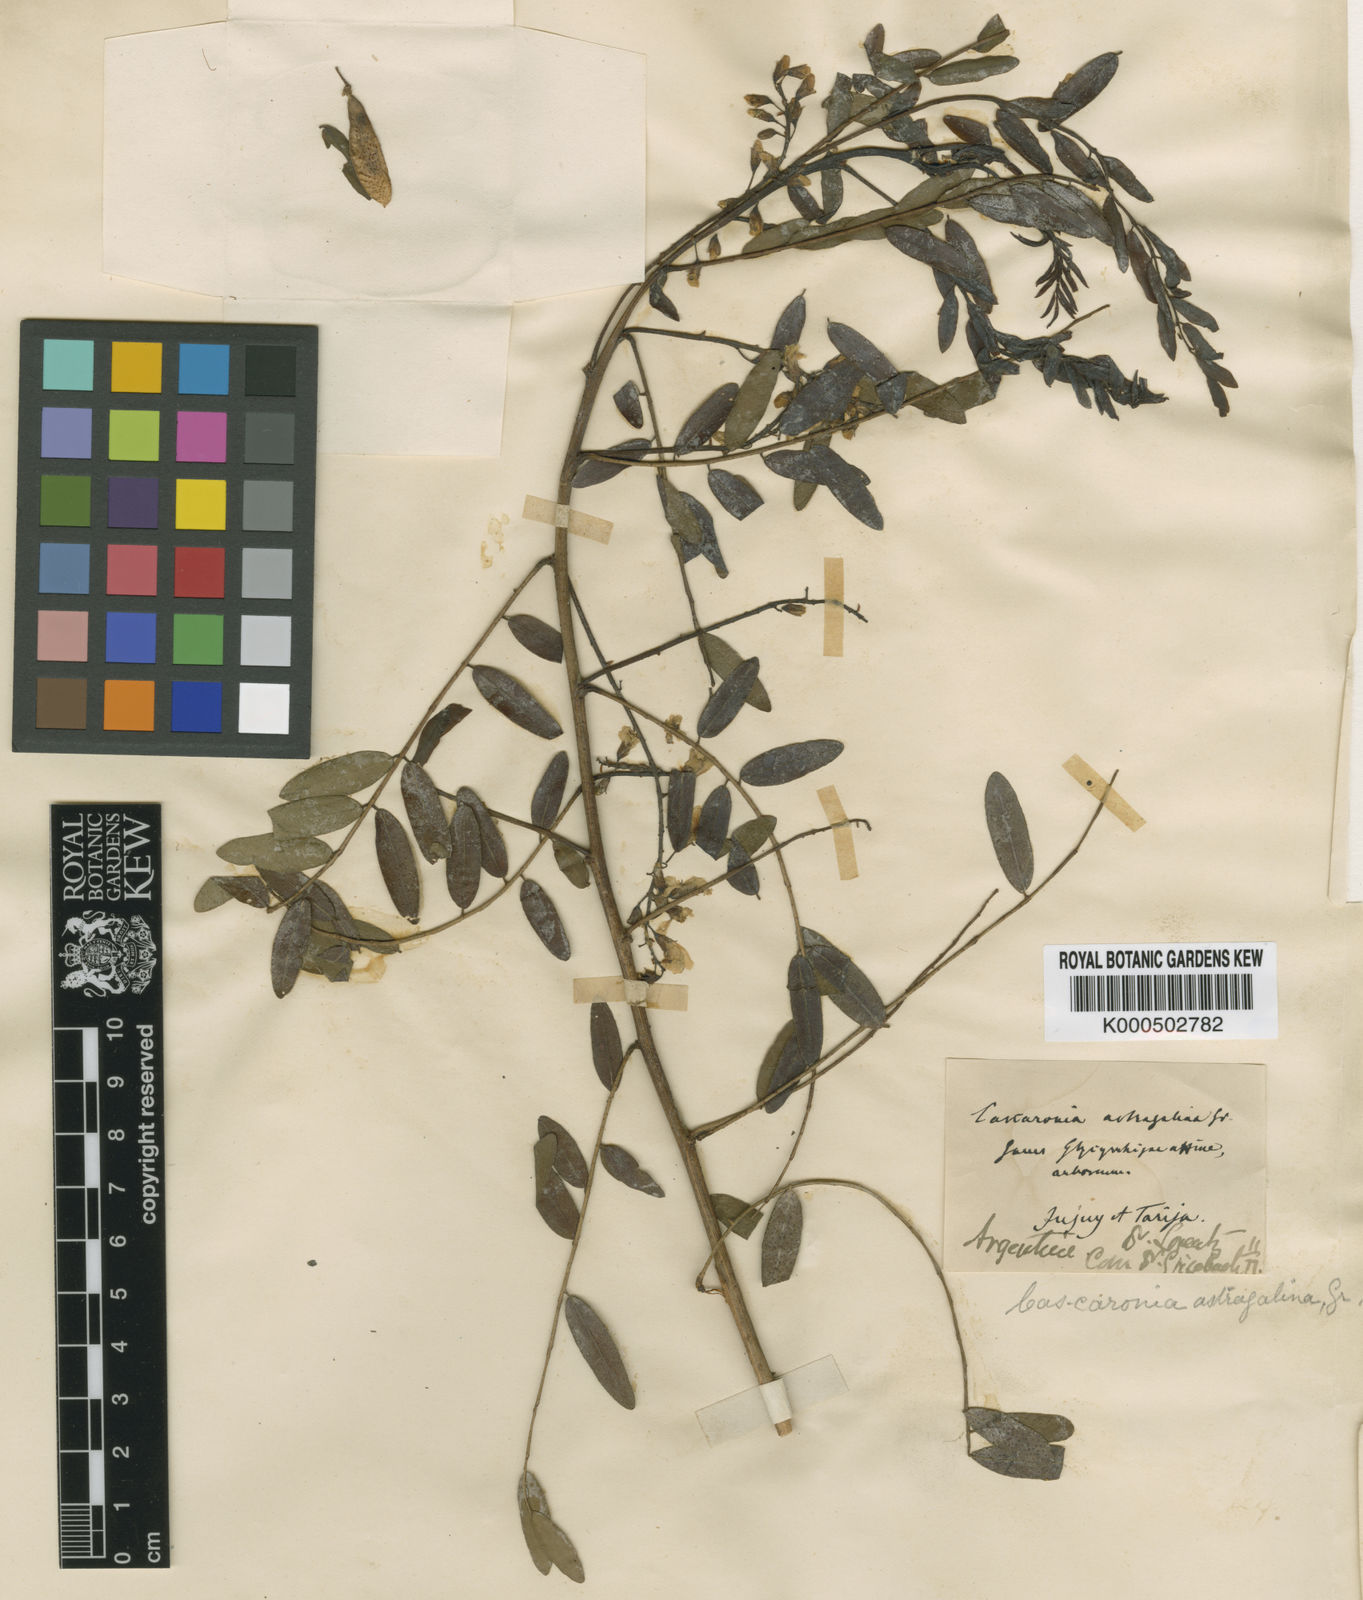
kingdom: Plantae
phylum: Tracheophyta
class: Magnoliopsida
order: Fabales
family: Fabaceae
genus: Glycyrrhiza
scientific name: Glycyrrhiza astragalina
